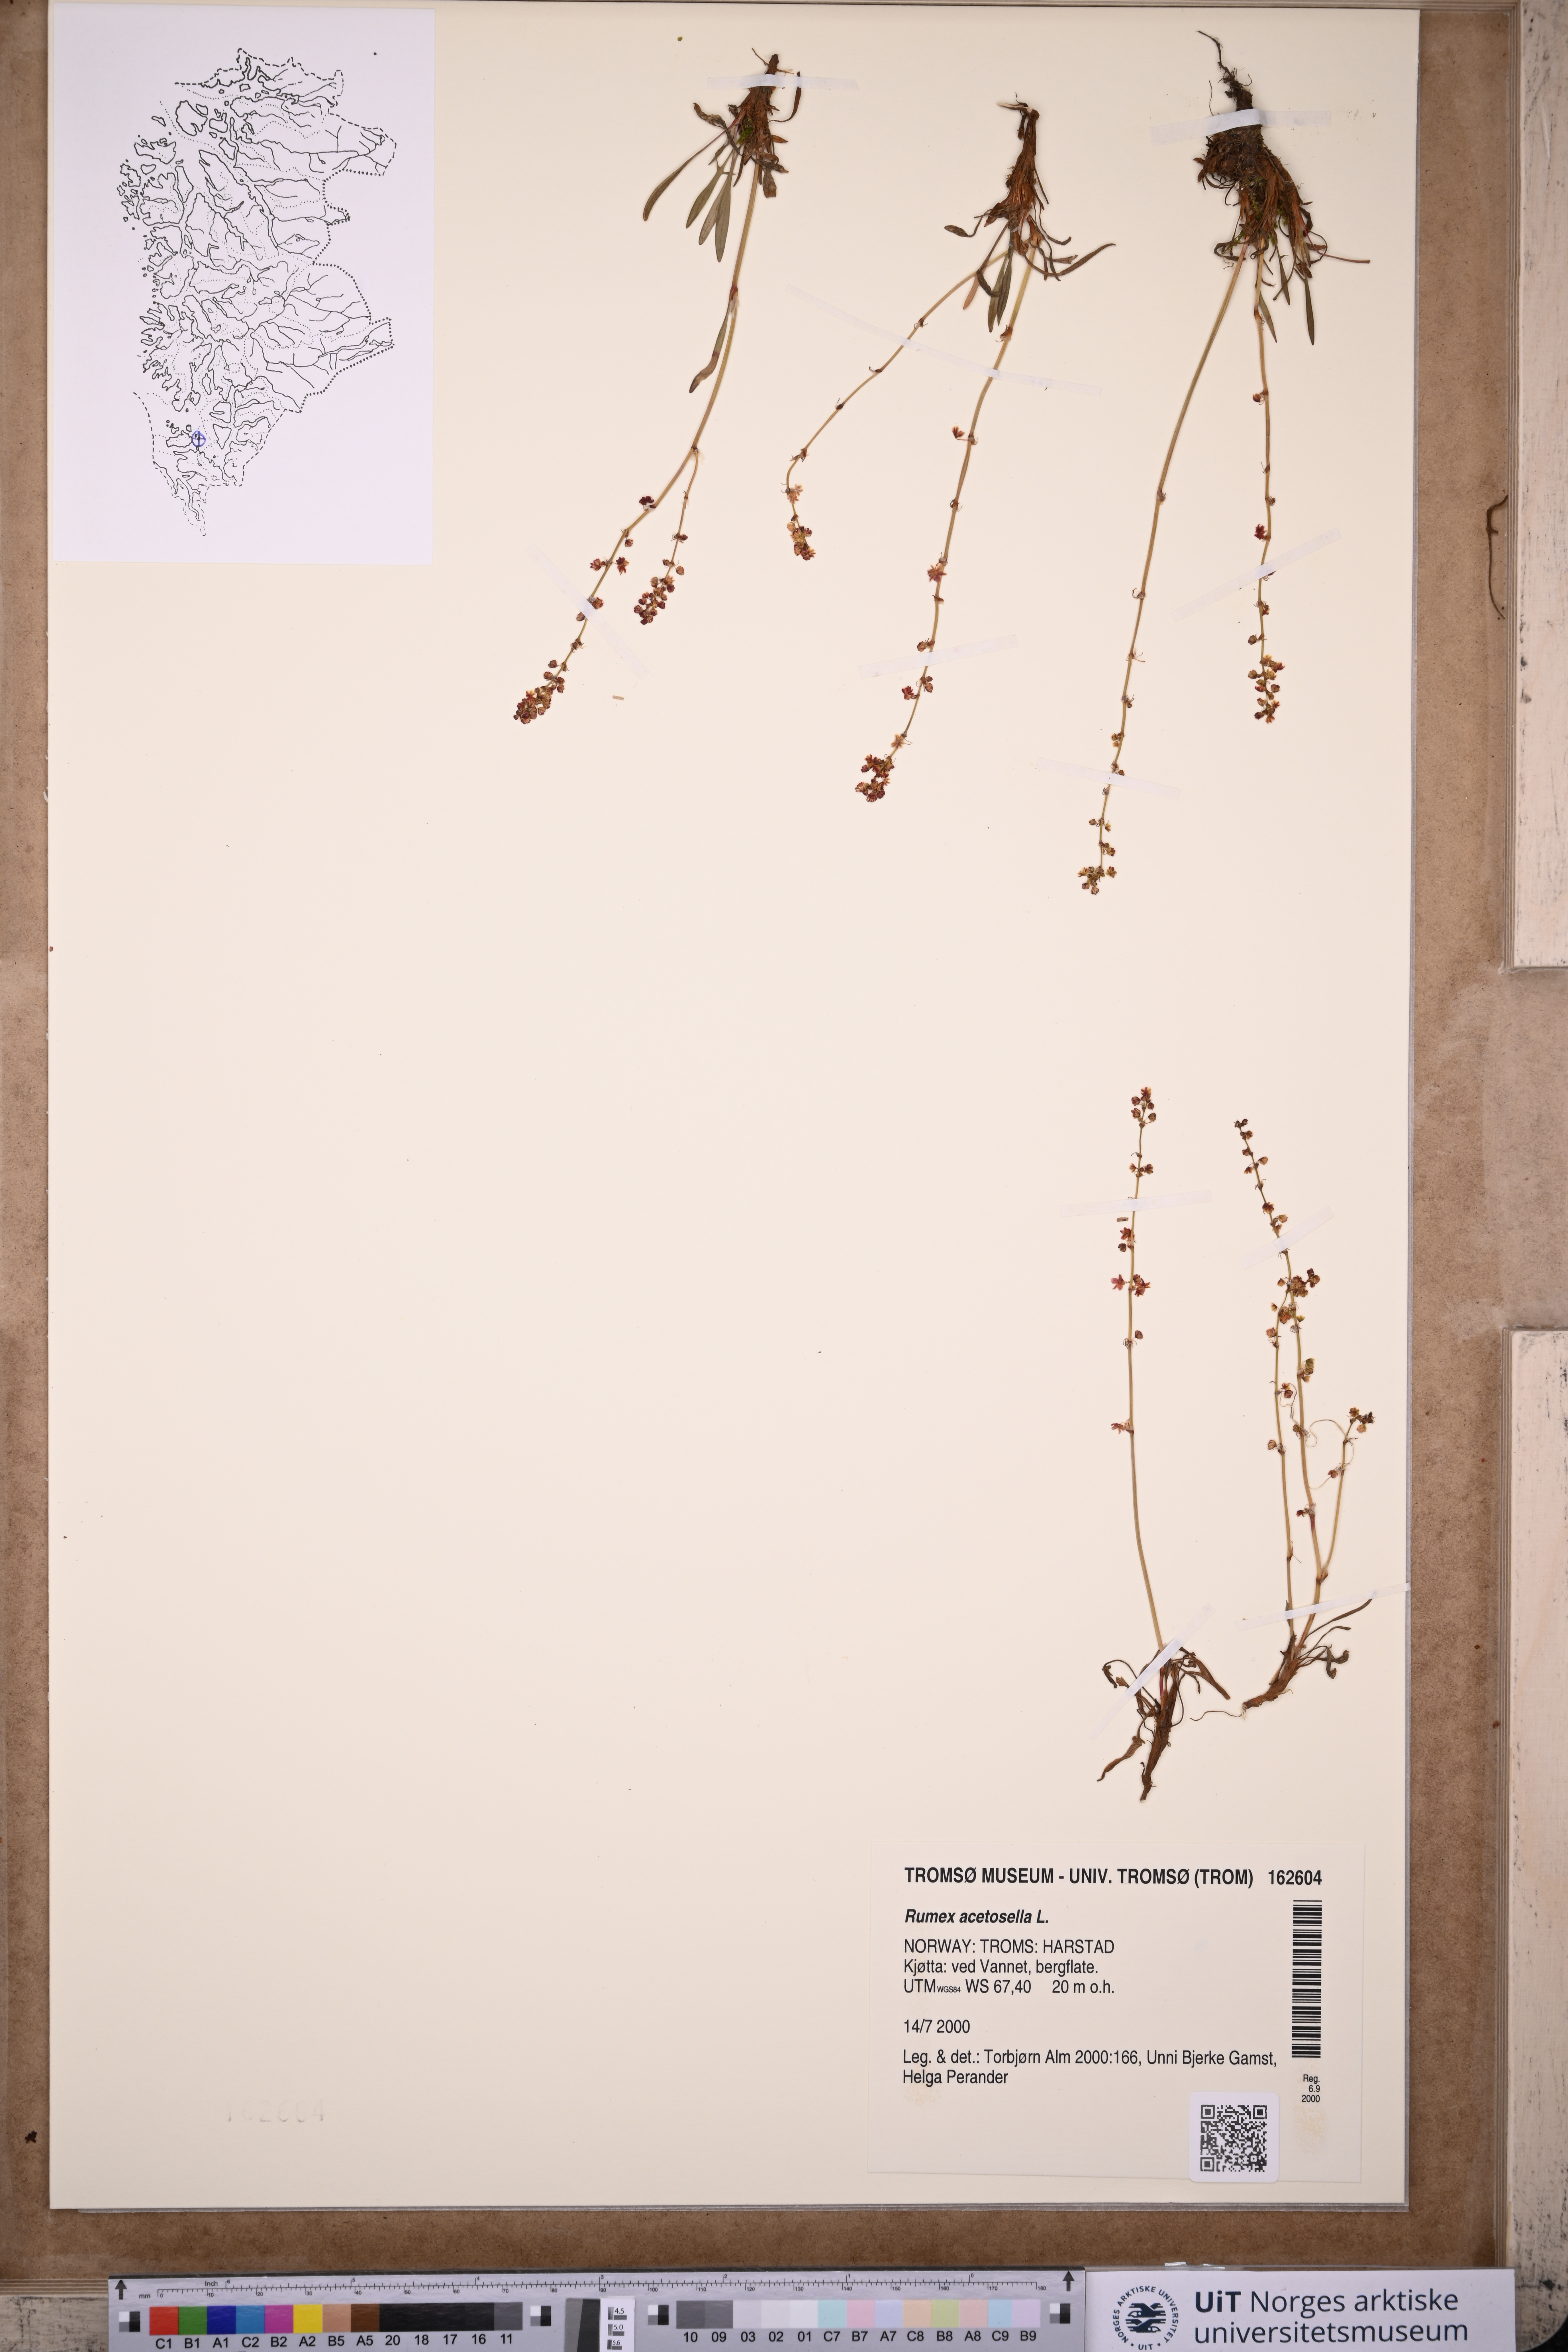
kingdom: Plantae
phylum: Tracheophyta
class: Magnoliopsida
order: Caryophyllales
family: Polygonaceae
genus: Rumex
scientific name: Rumex acetosella
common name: Common sheep sorrel
